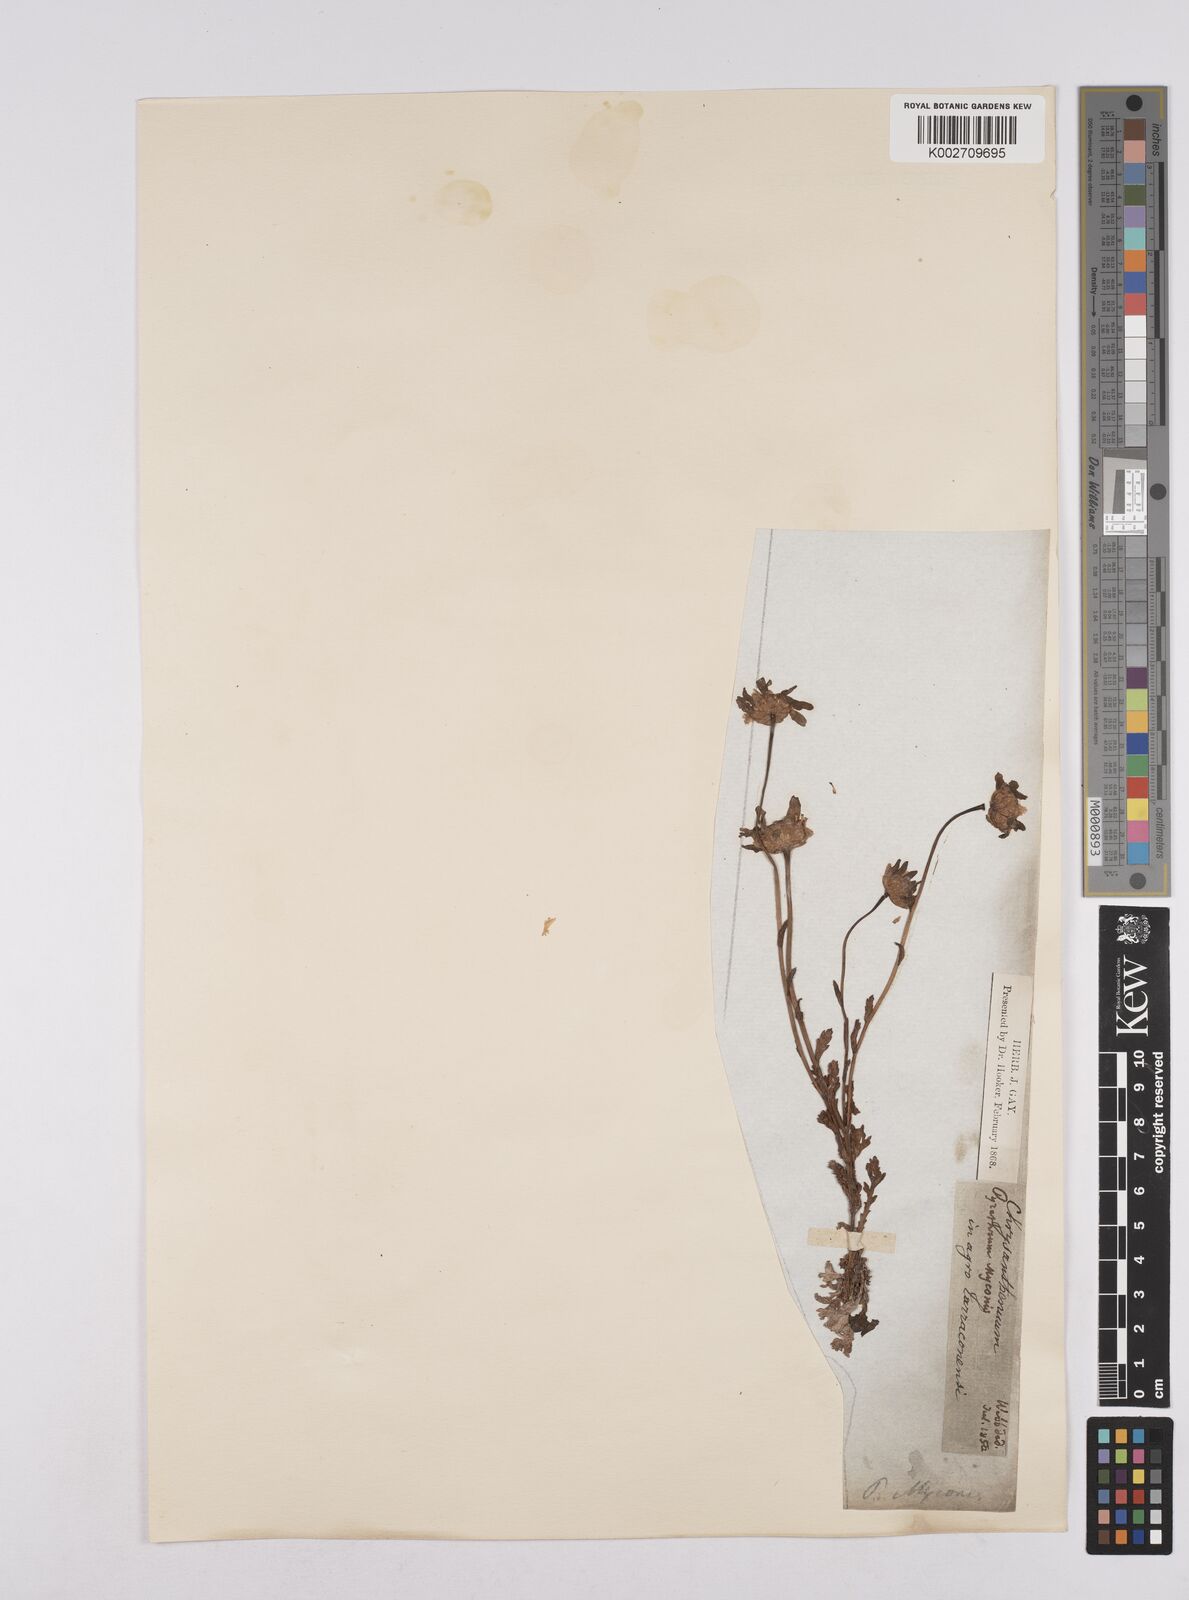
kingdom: Plantae
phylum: Tracheophyta
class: Magnoliopsida
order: Asterales
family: Asteraceae
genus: Coleostephus
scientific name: Coleostephus myconis
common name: Mediterranean marigold
